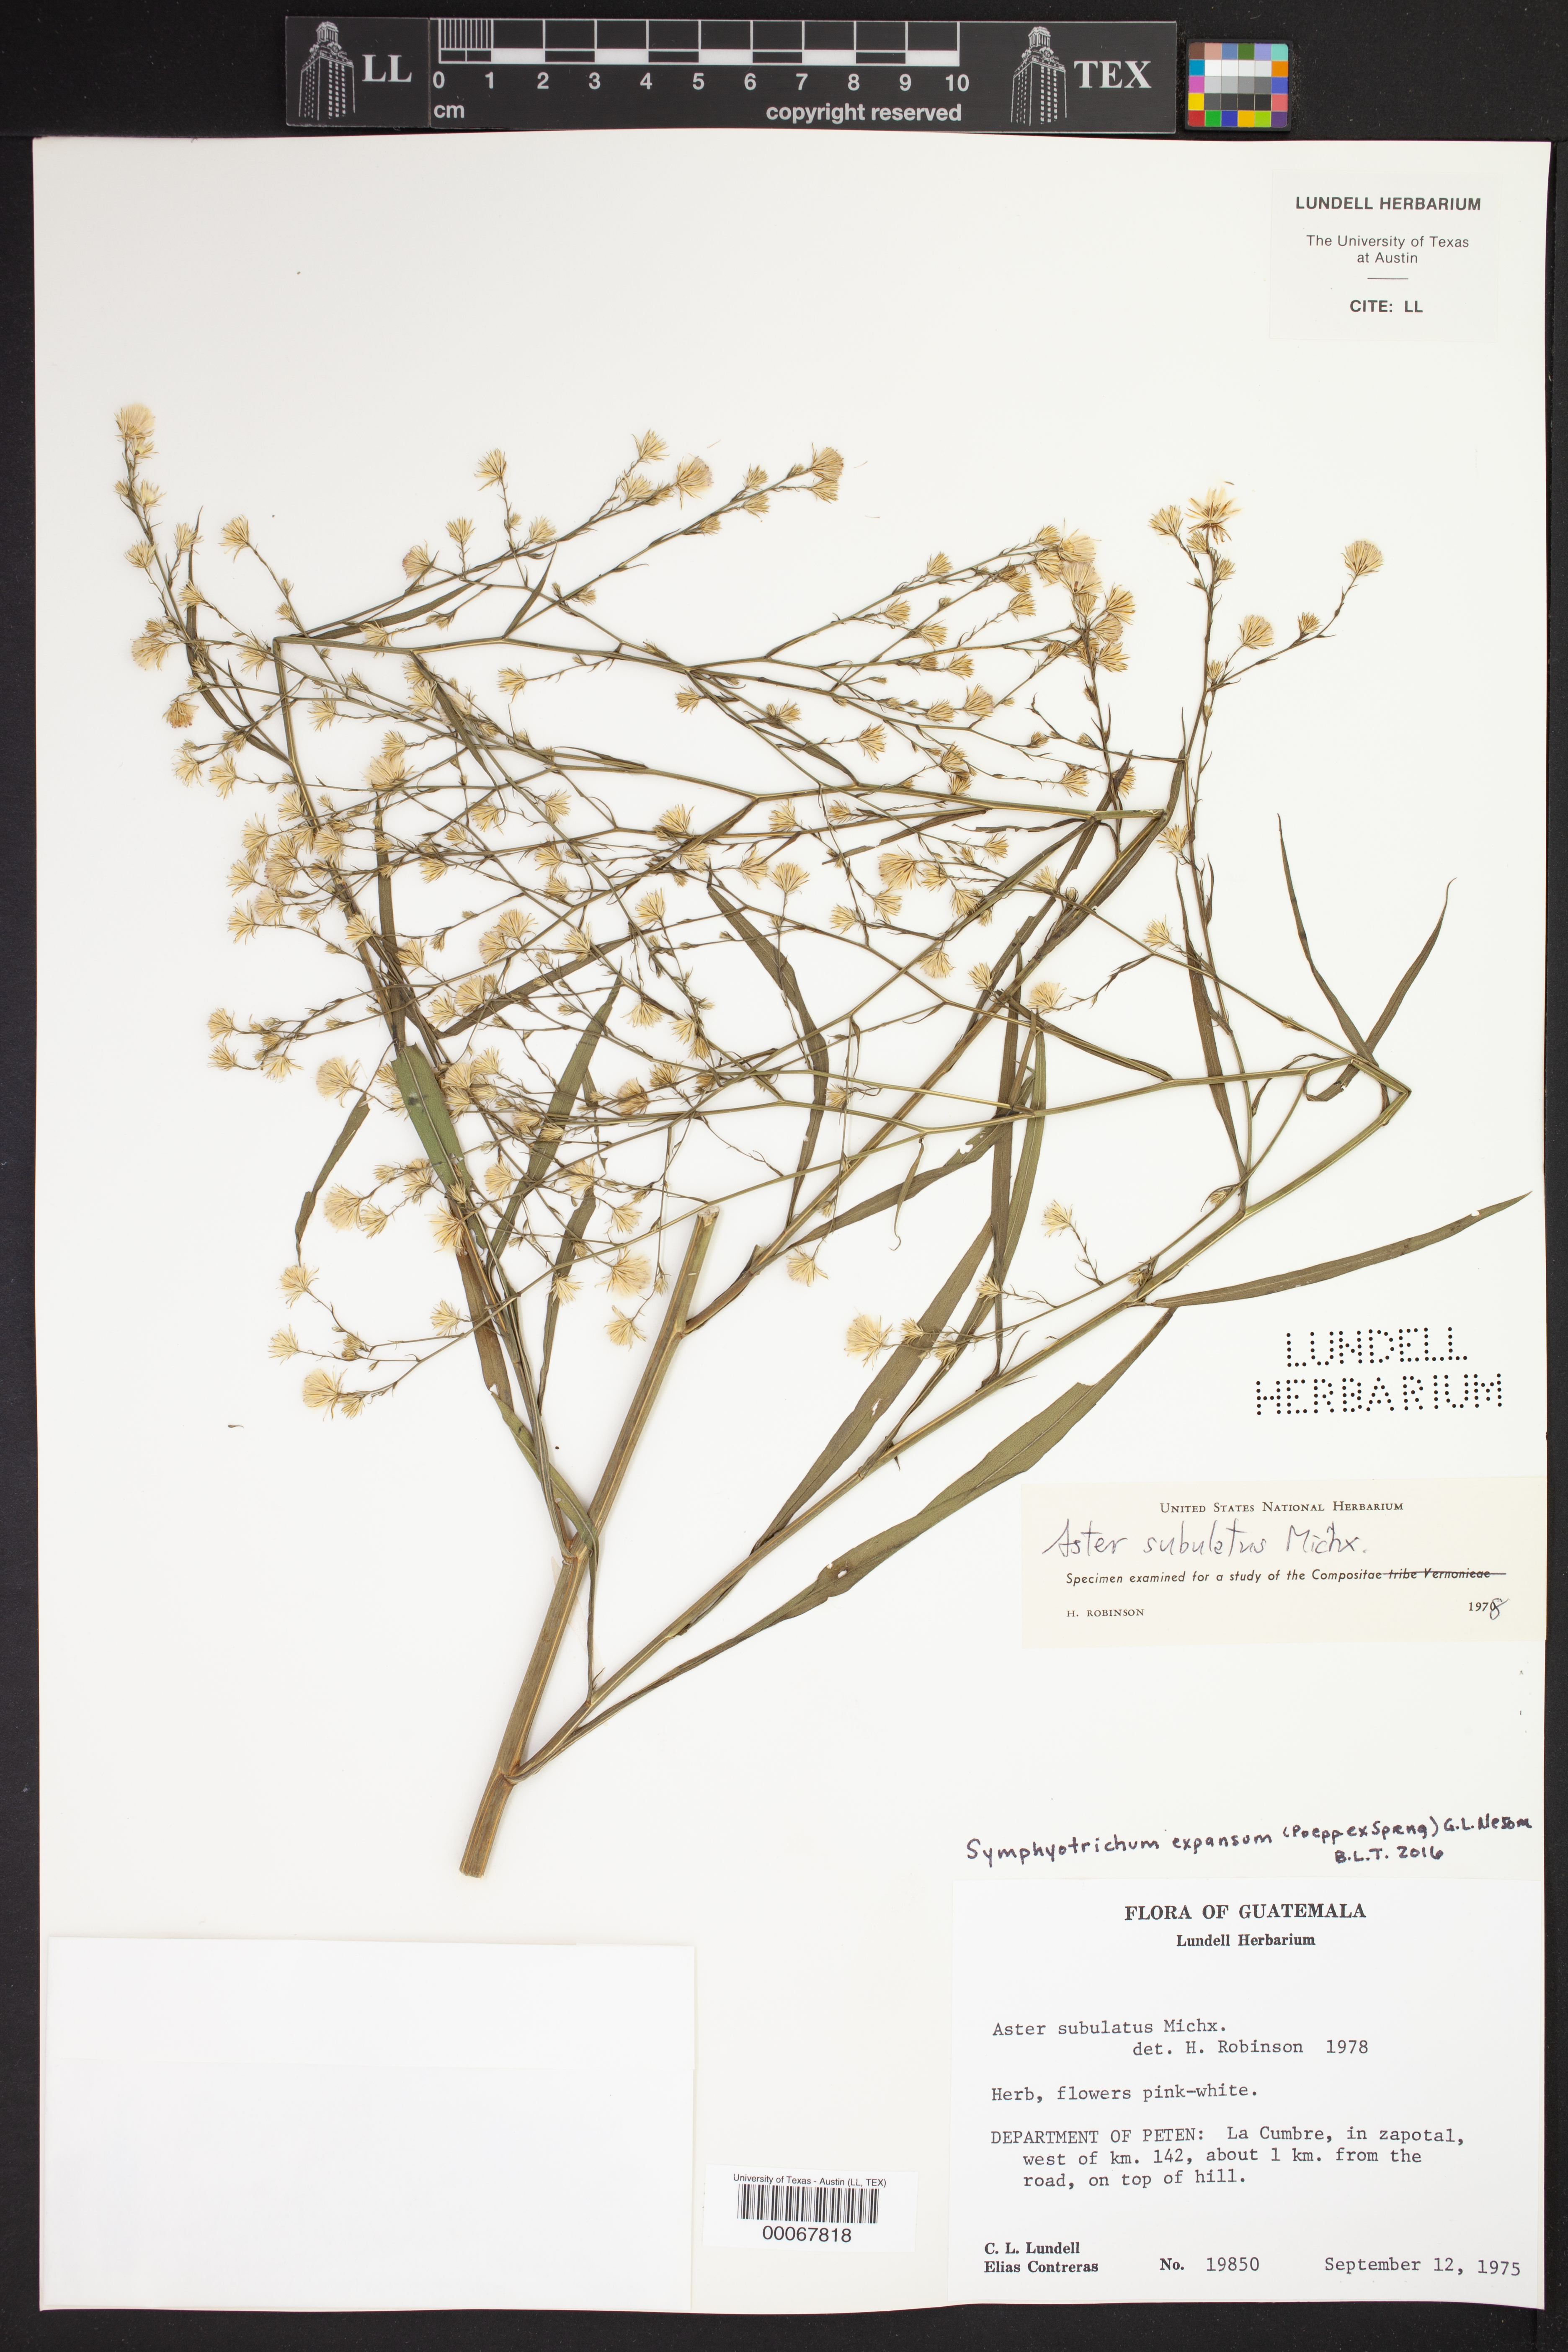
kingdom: Plantae
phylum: Tracheophyta
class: Magnoliopsida
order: Asterales
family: Asteraceae
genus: Symphyotrichum
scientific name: Symphyotrichum expansum
